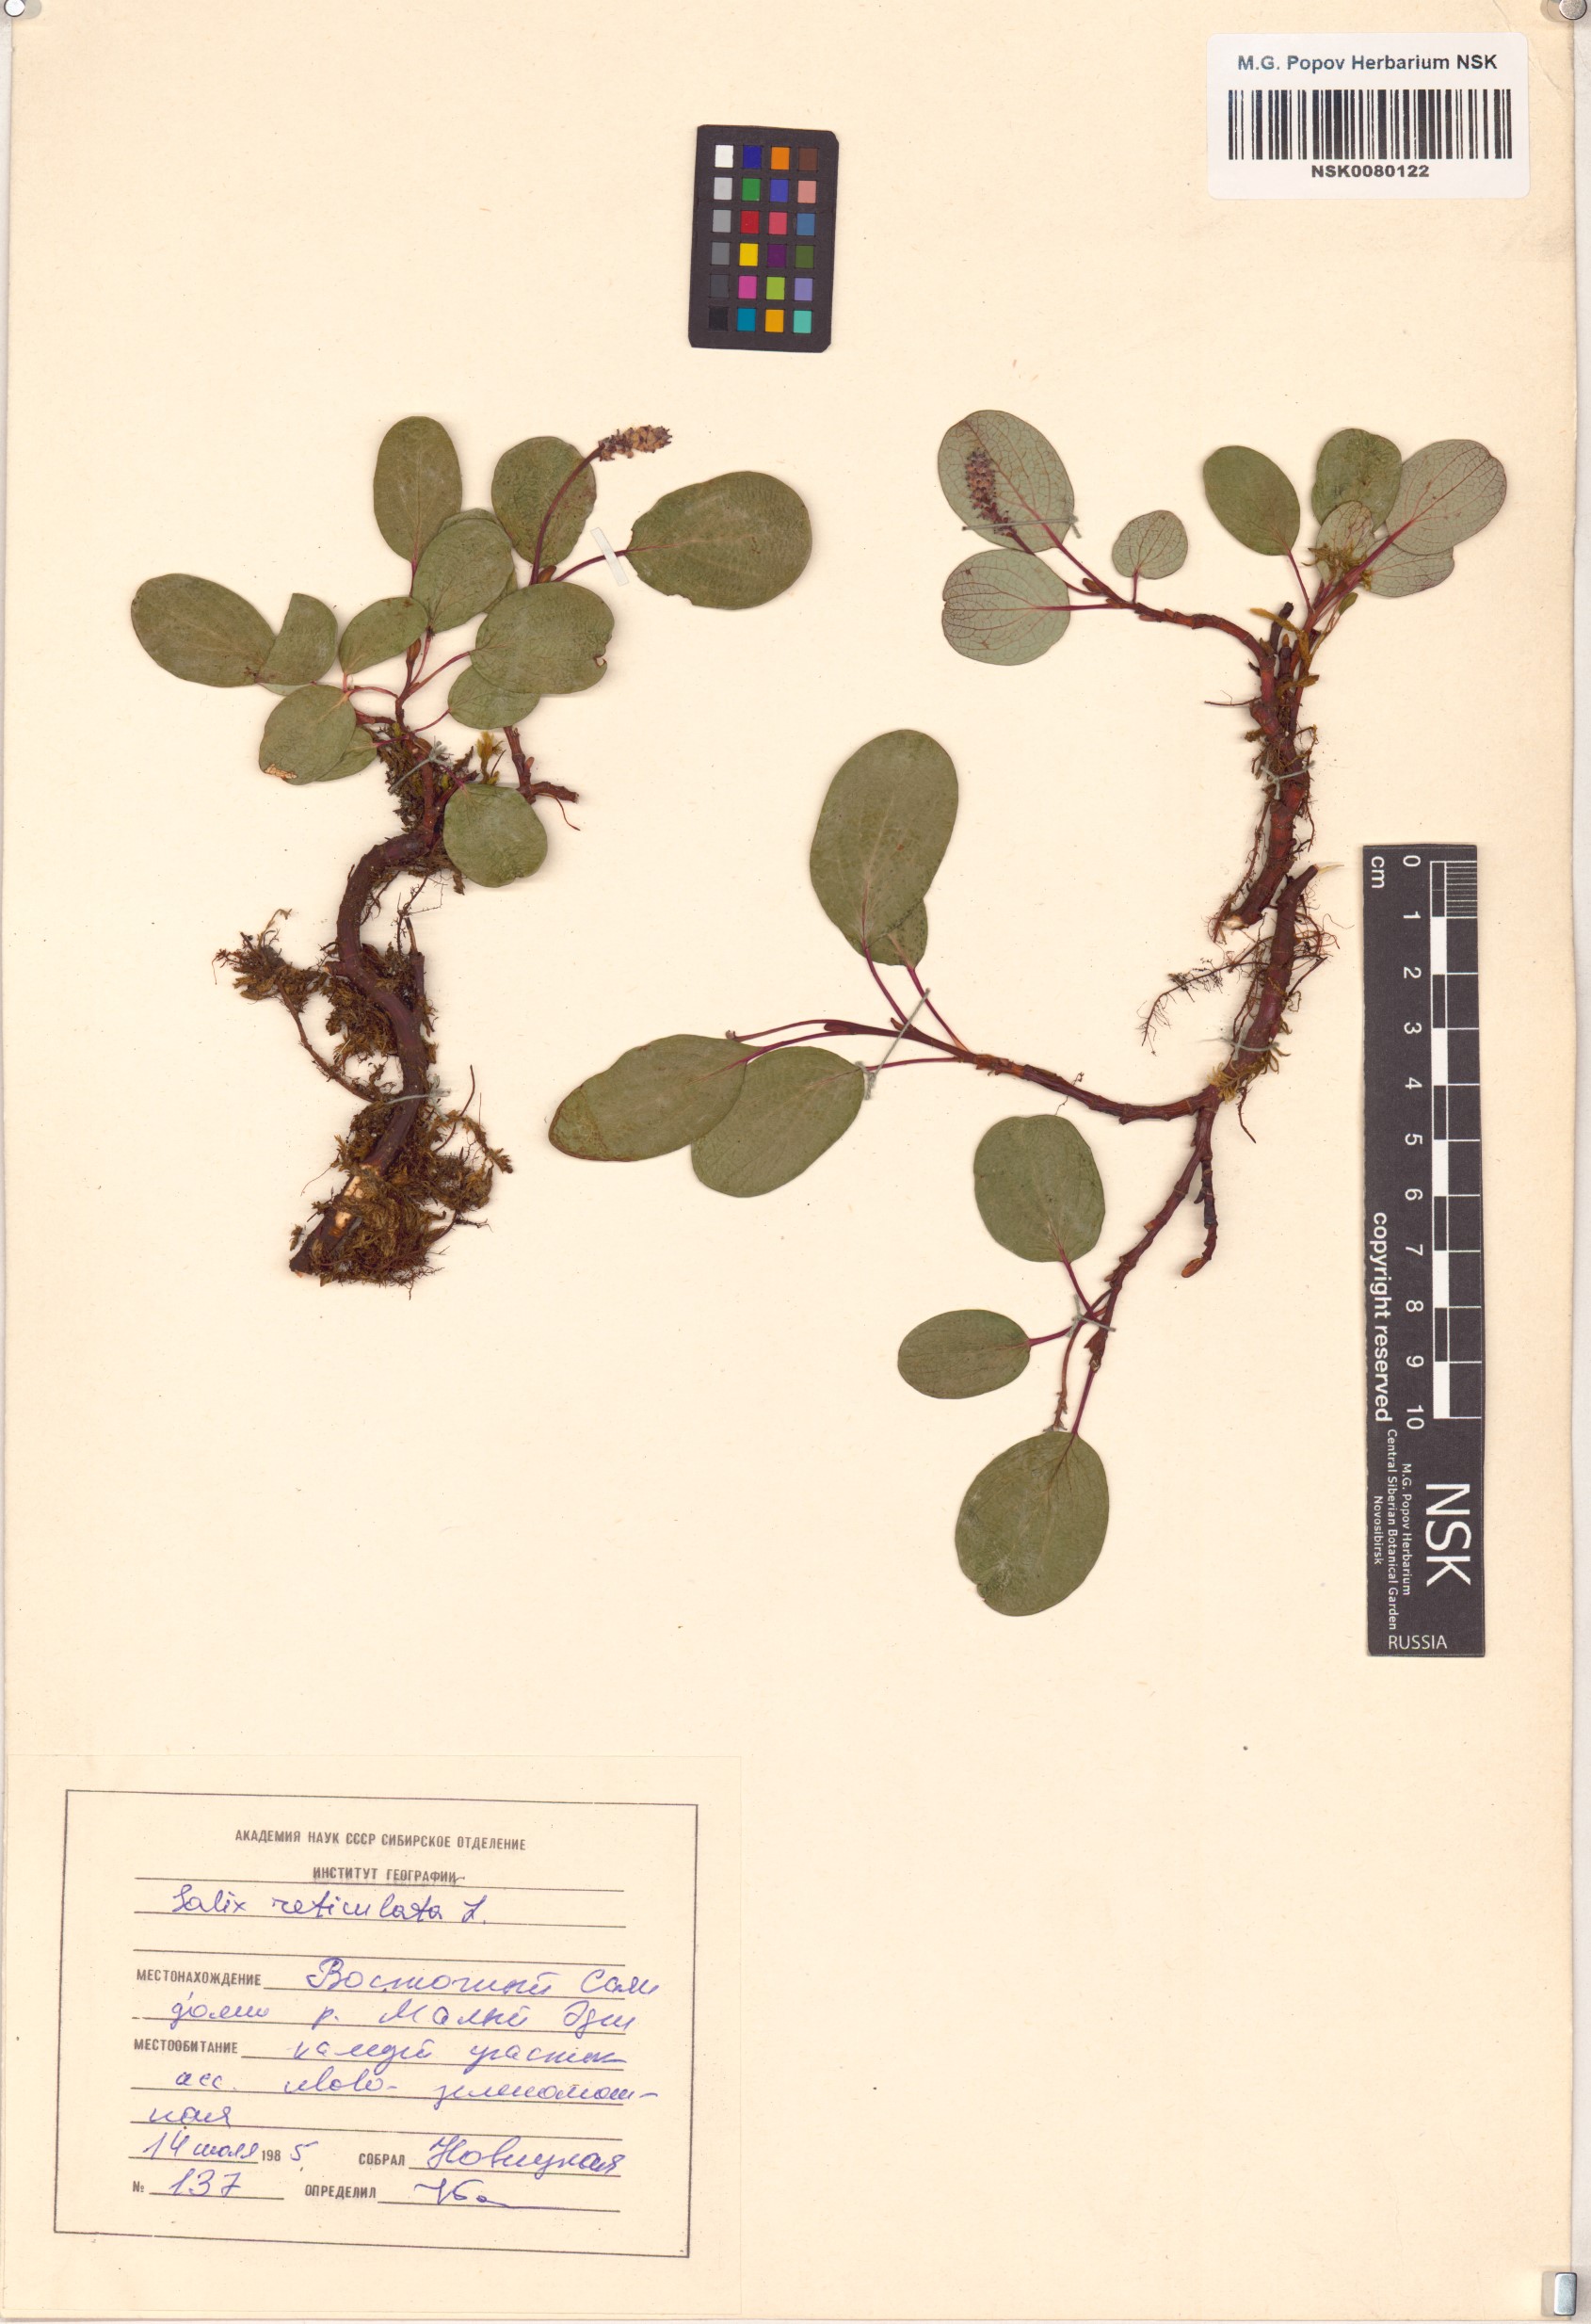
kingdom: Plantae
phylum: Tracheophyta
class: Magnoliopsida
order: Malpighiales
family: Salicaceae
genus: Salix
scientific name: Salix reticulata
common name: Net-leaved willow
